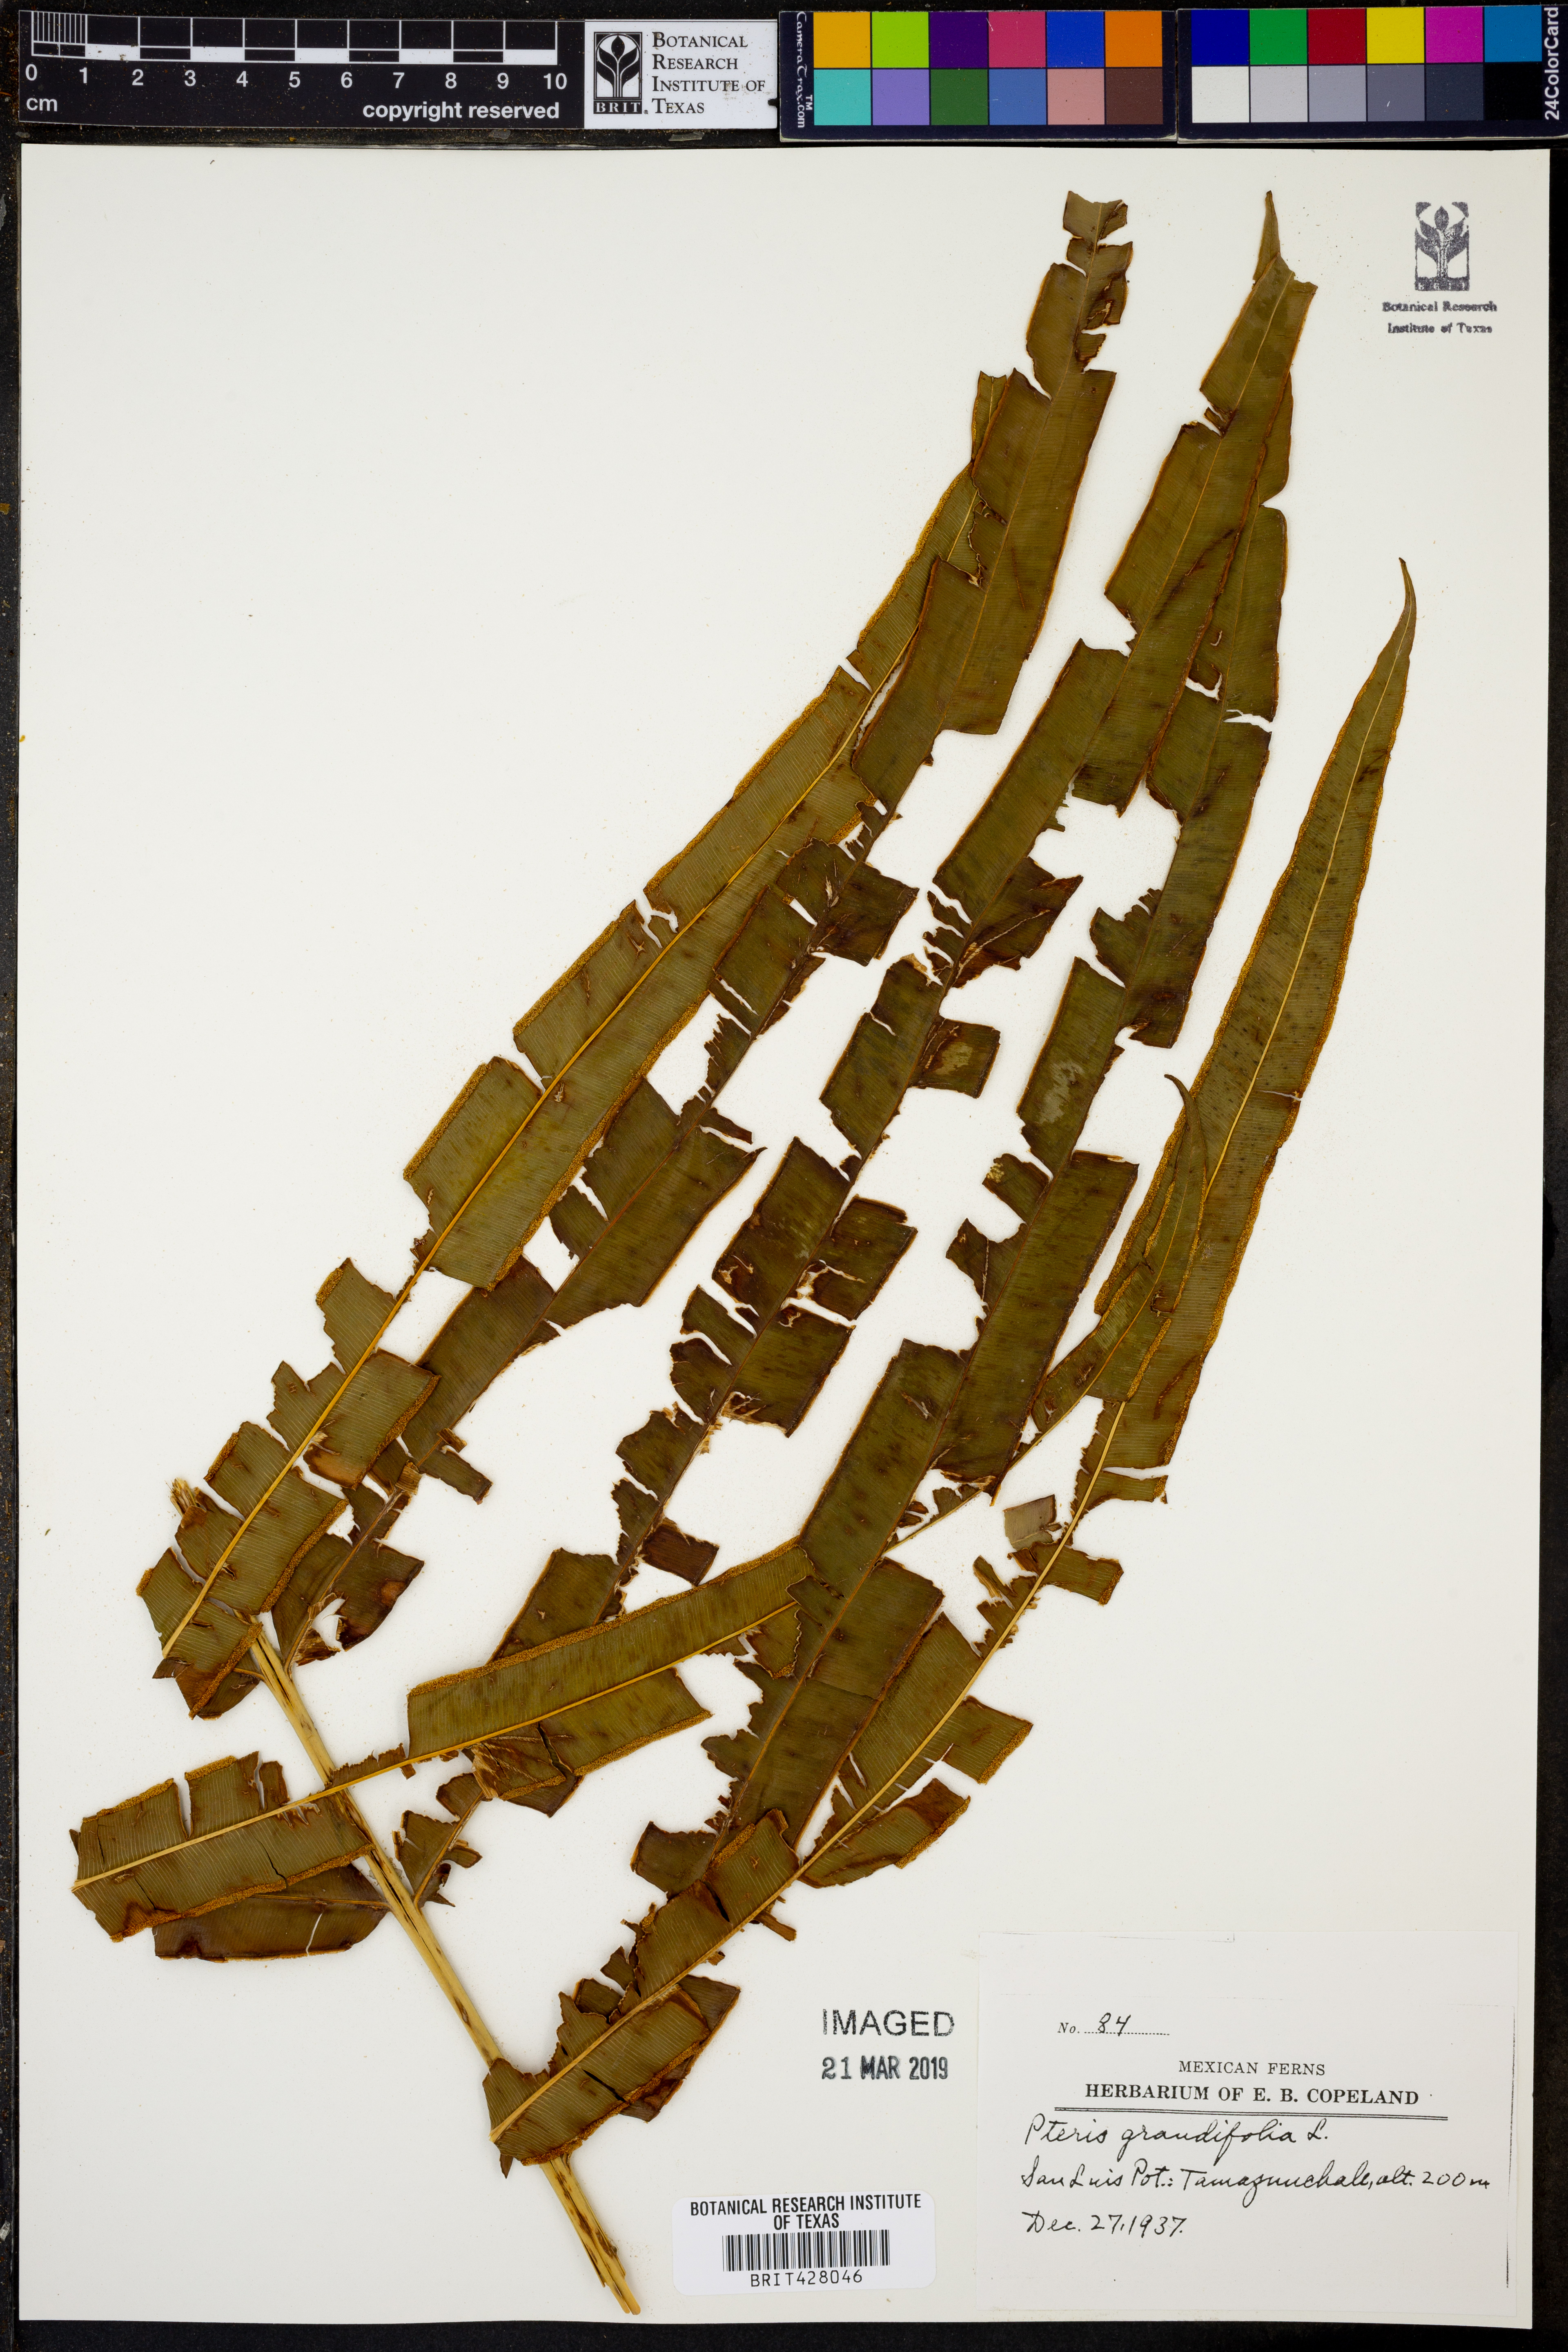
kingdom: Plantae
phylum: Tracheophyta
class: Polypodiopsida
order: Polypodiales
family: Pteridaceae
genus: Pteris
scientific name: Pteris grandifolia
